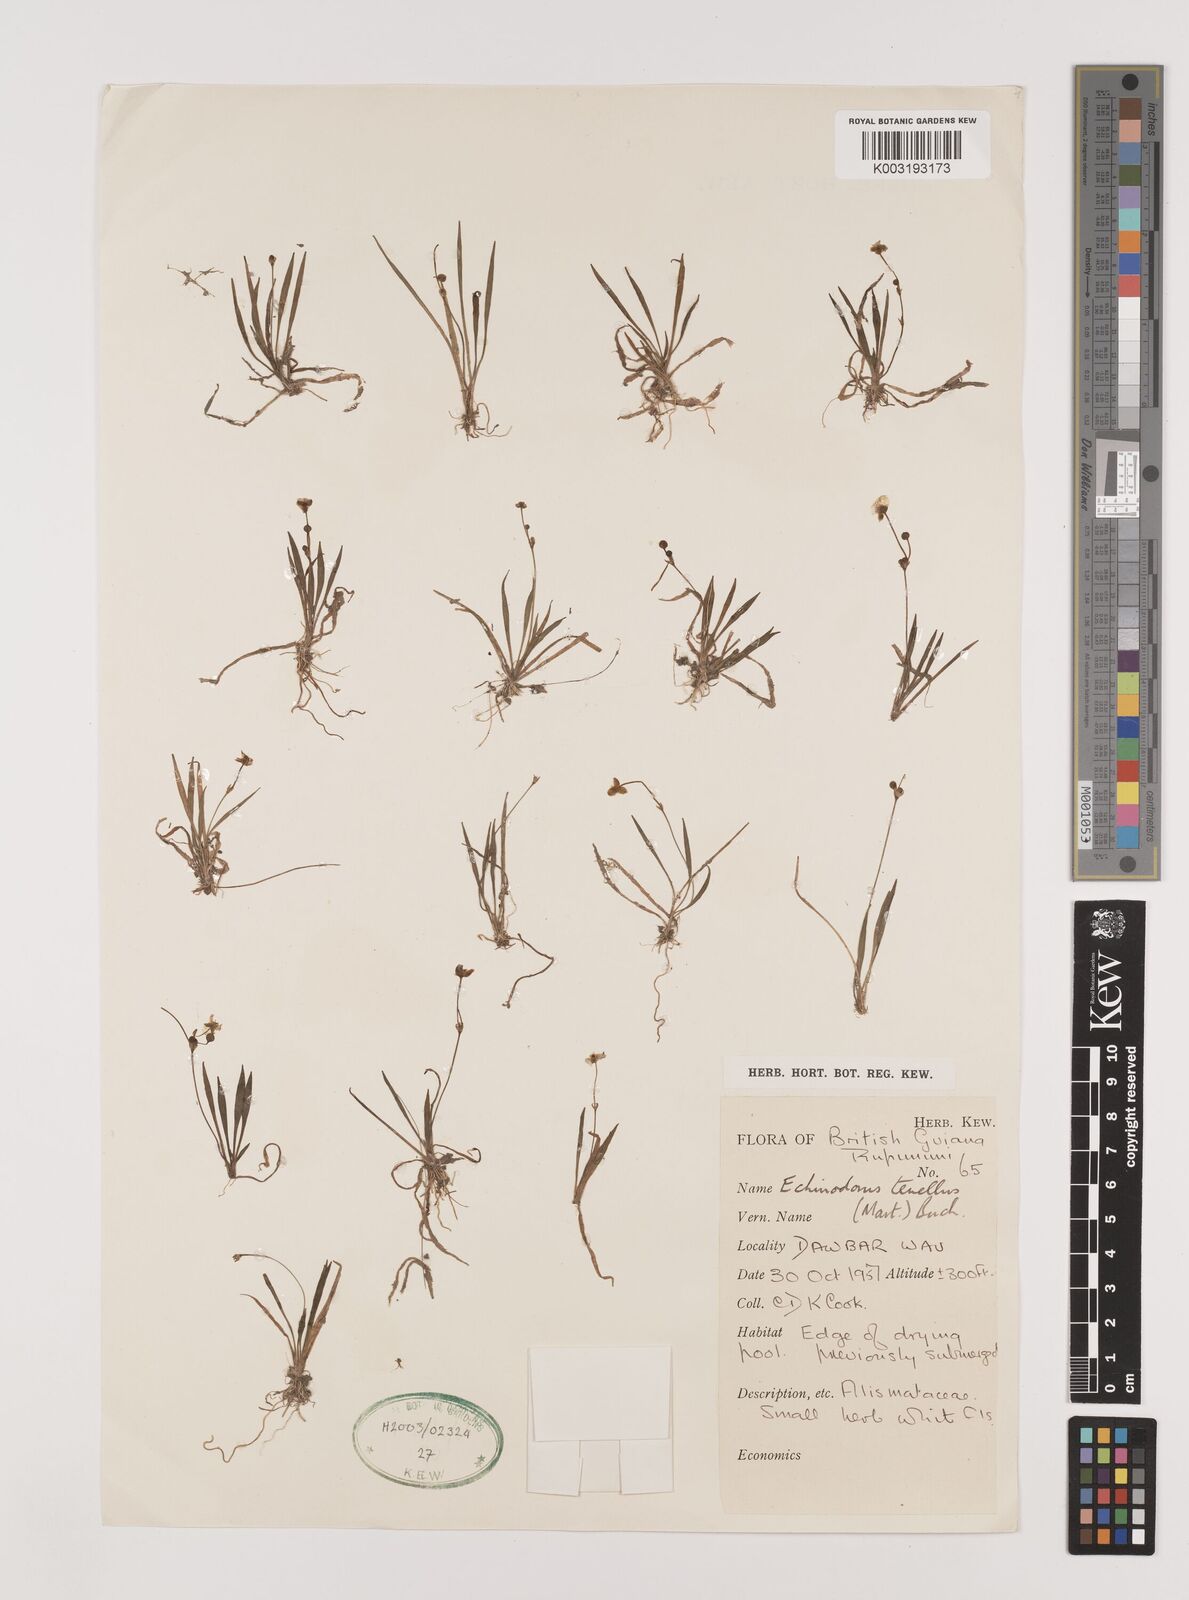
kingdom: Plantae
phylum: Tracheophyta
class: Liliopsida
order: Alismatales
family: Alismataceae
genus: Helanthium
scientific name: Helanthium tenellum
